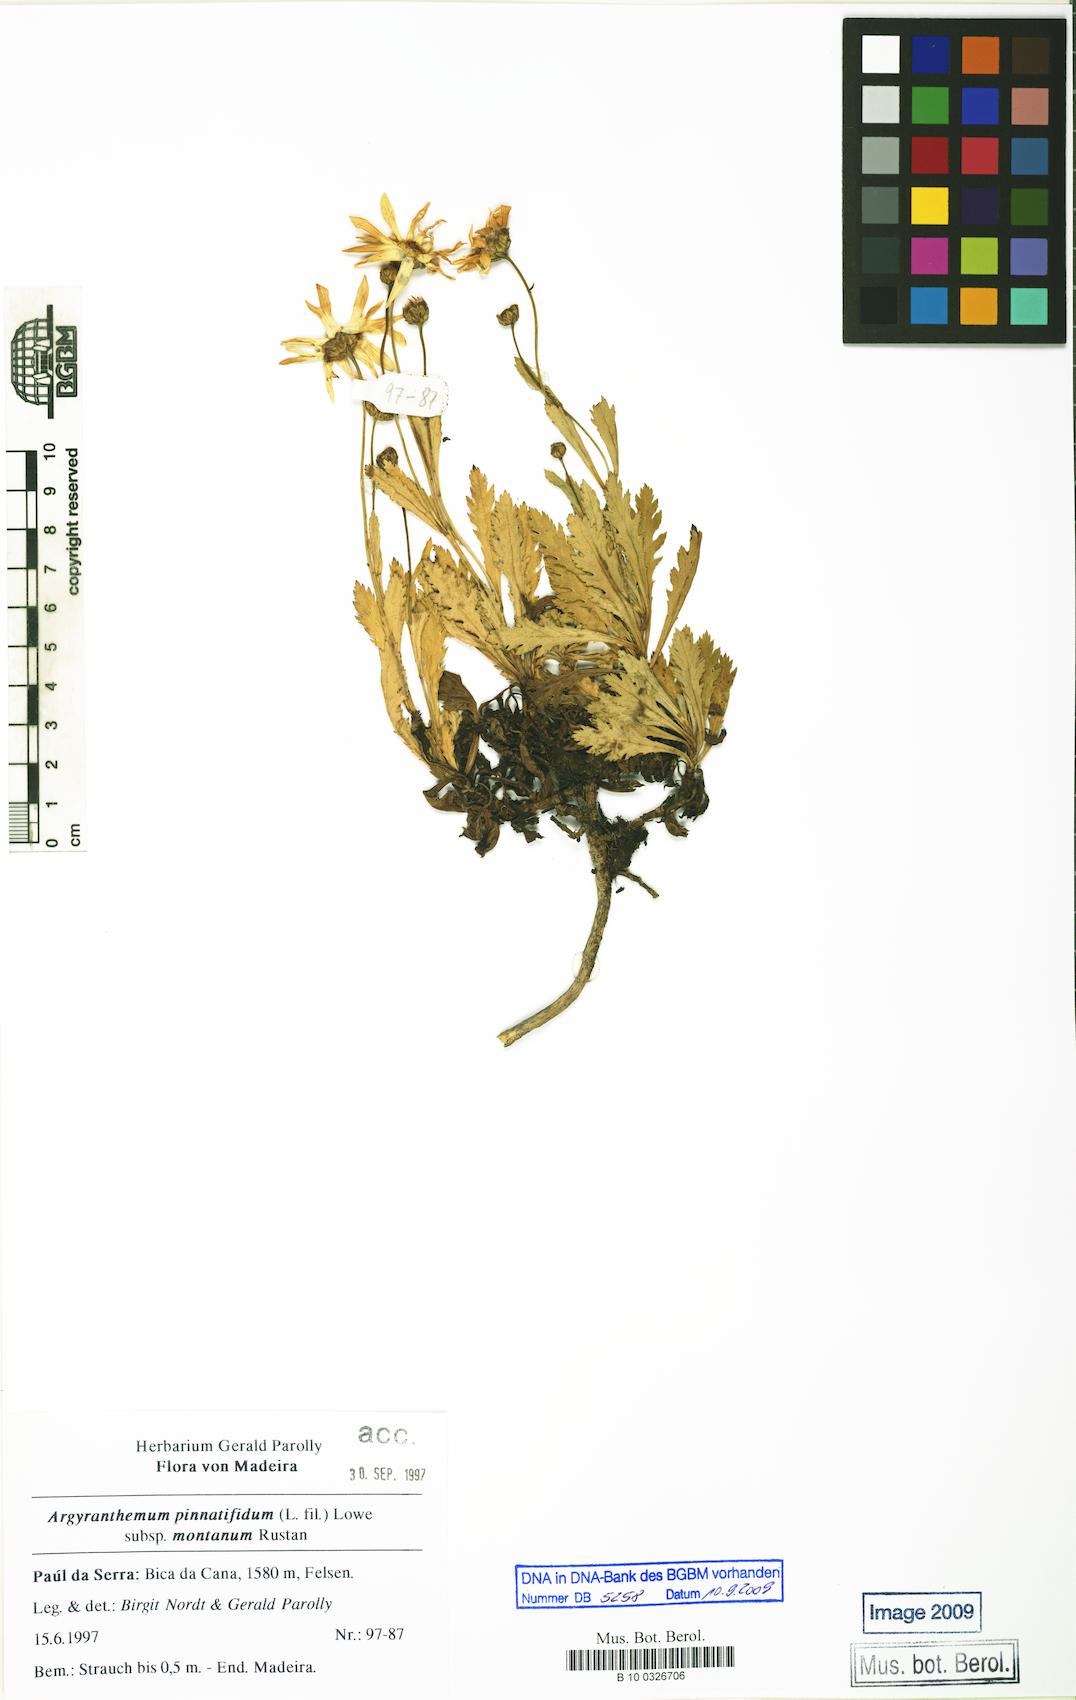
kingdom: Plantae
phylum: Tracheophyta
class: Magnoliopsida
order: Asterales
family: Asteraceae
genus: Argyranthemum
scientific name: Argyranthemum pinnatifidum
